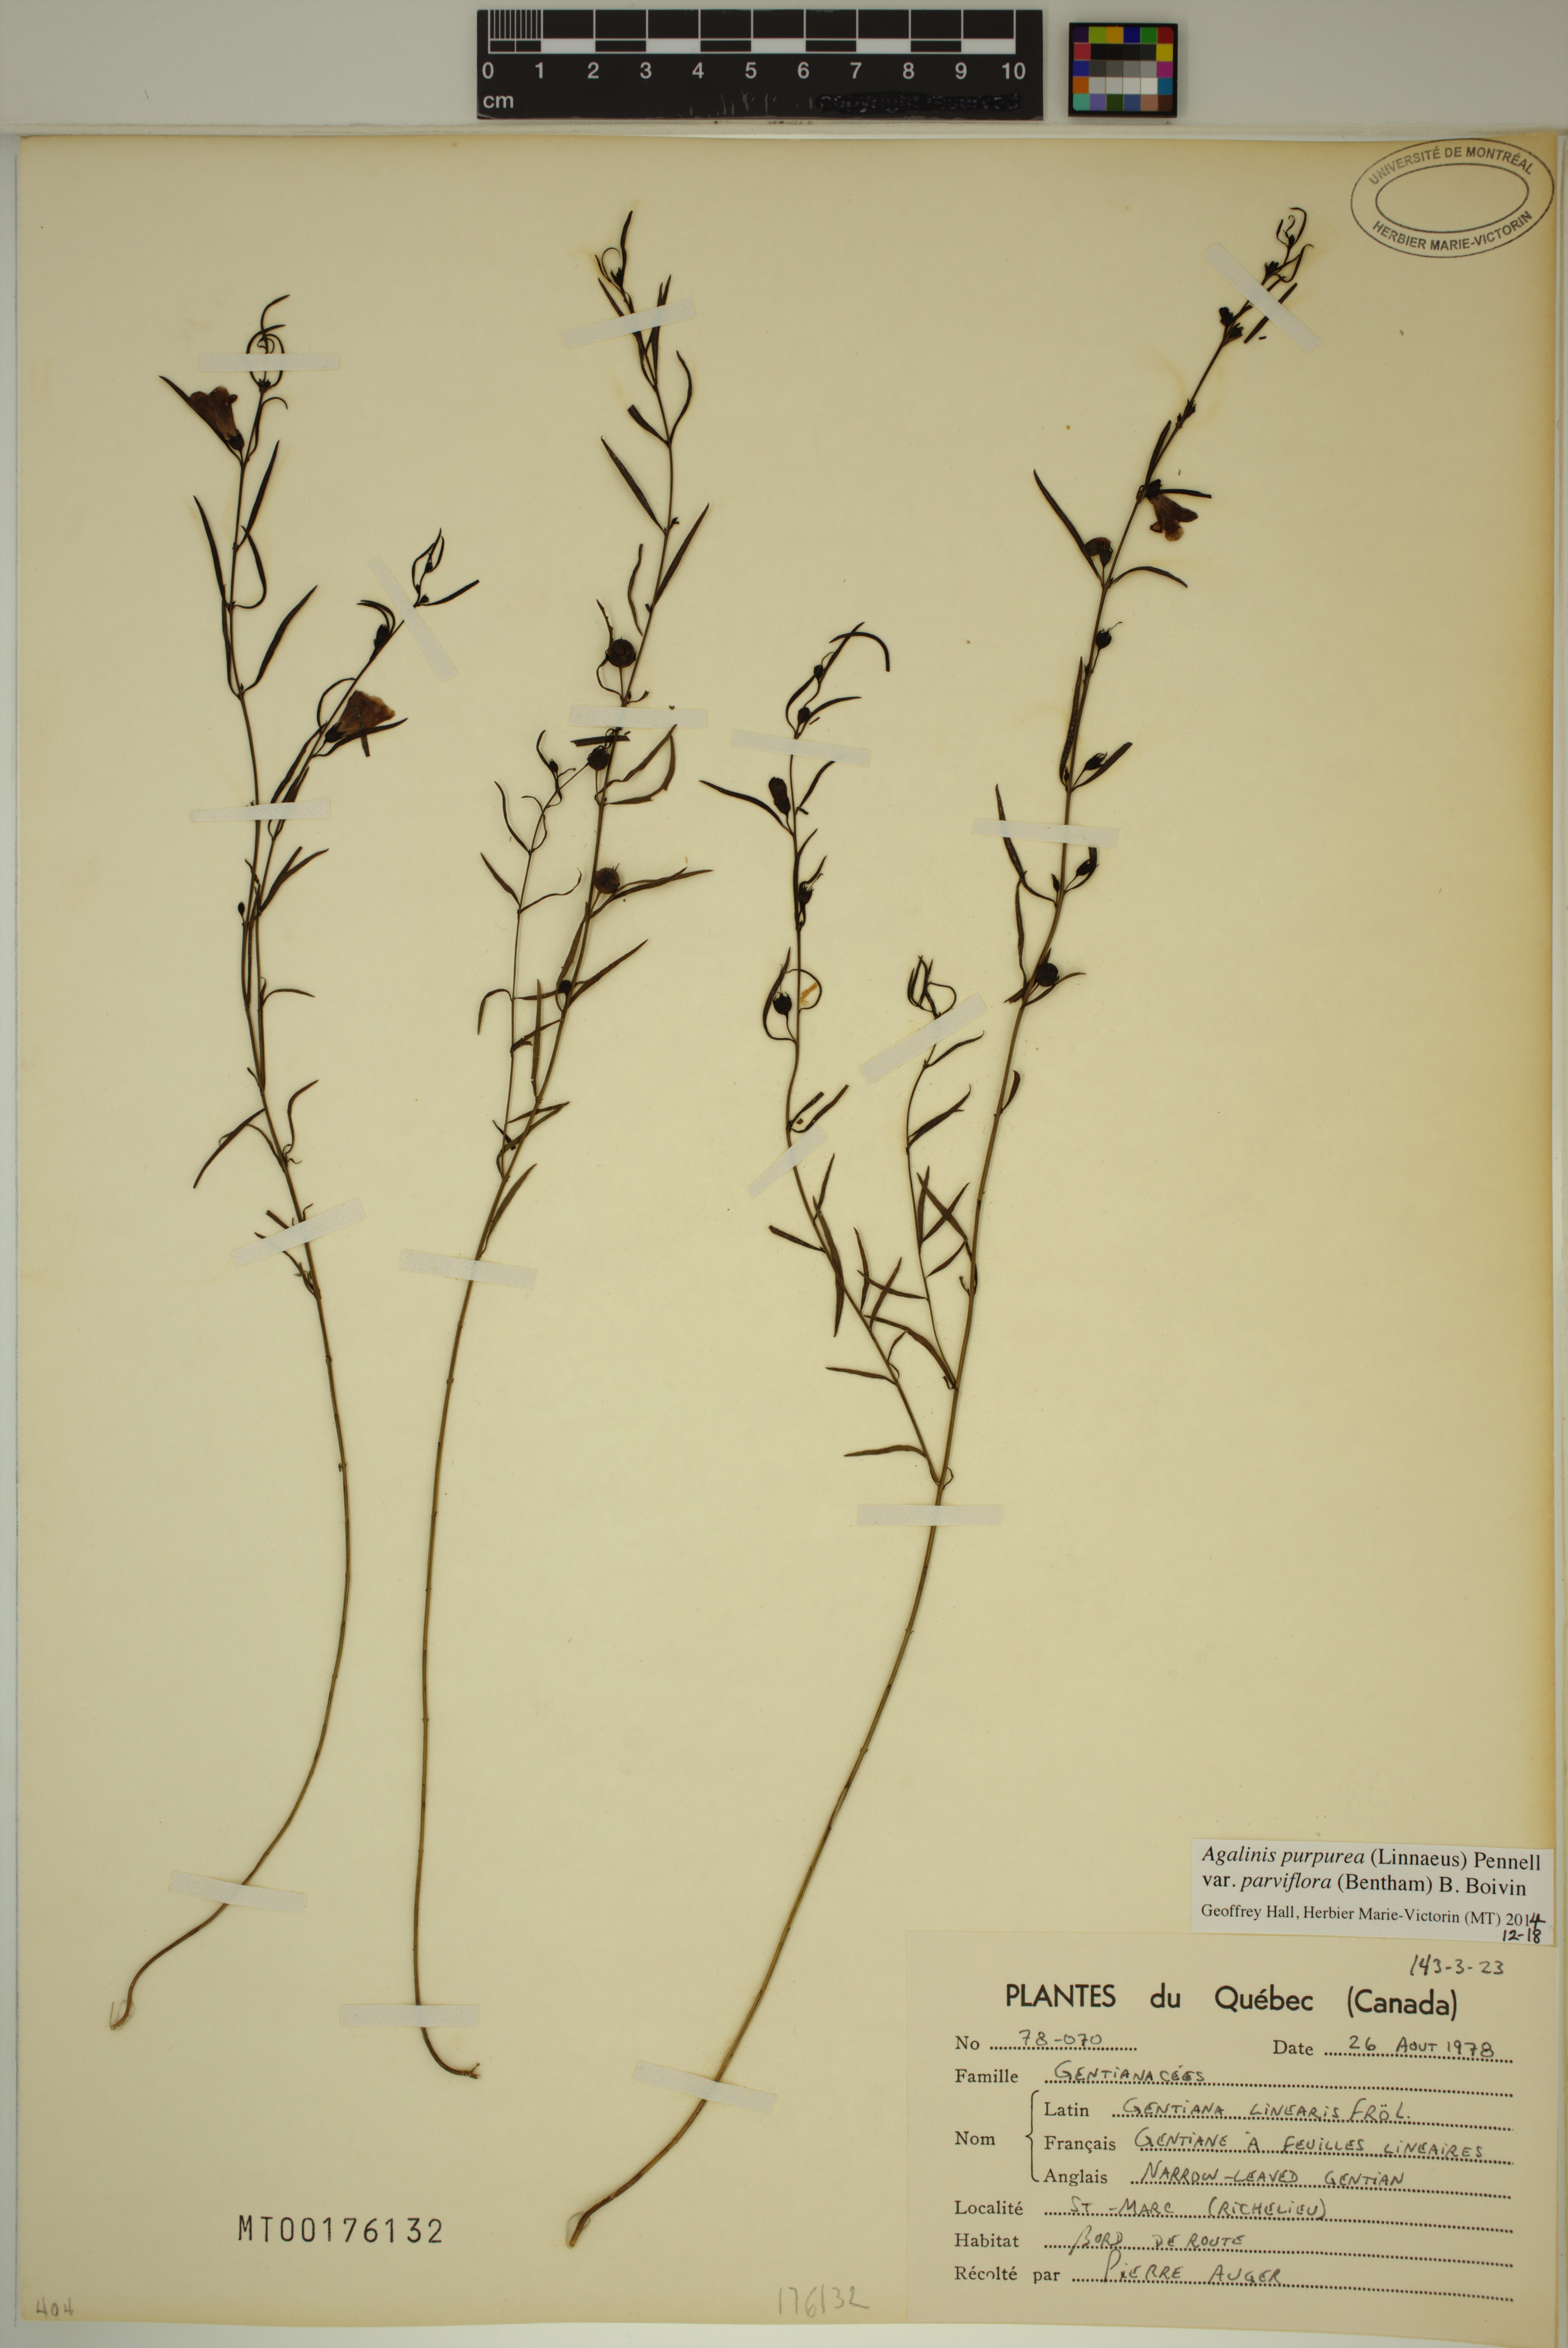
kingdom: Plantae
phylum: Tracheophyta
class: Magnoliopsida
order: Lamiales
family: Orobanchaceae
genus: Agalinis
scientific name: Agalinis purpurea
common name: Purple false foxglove
